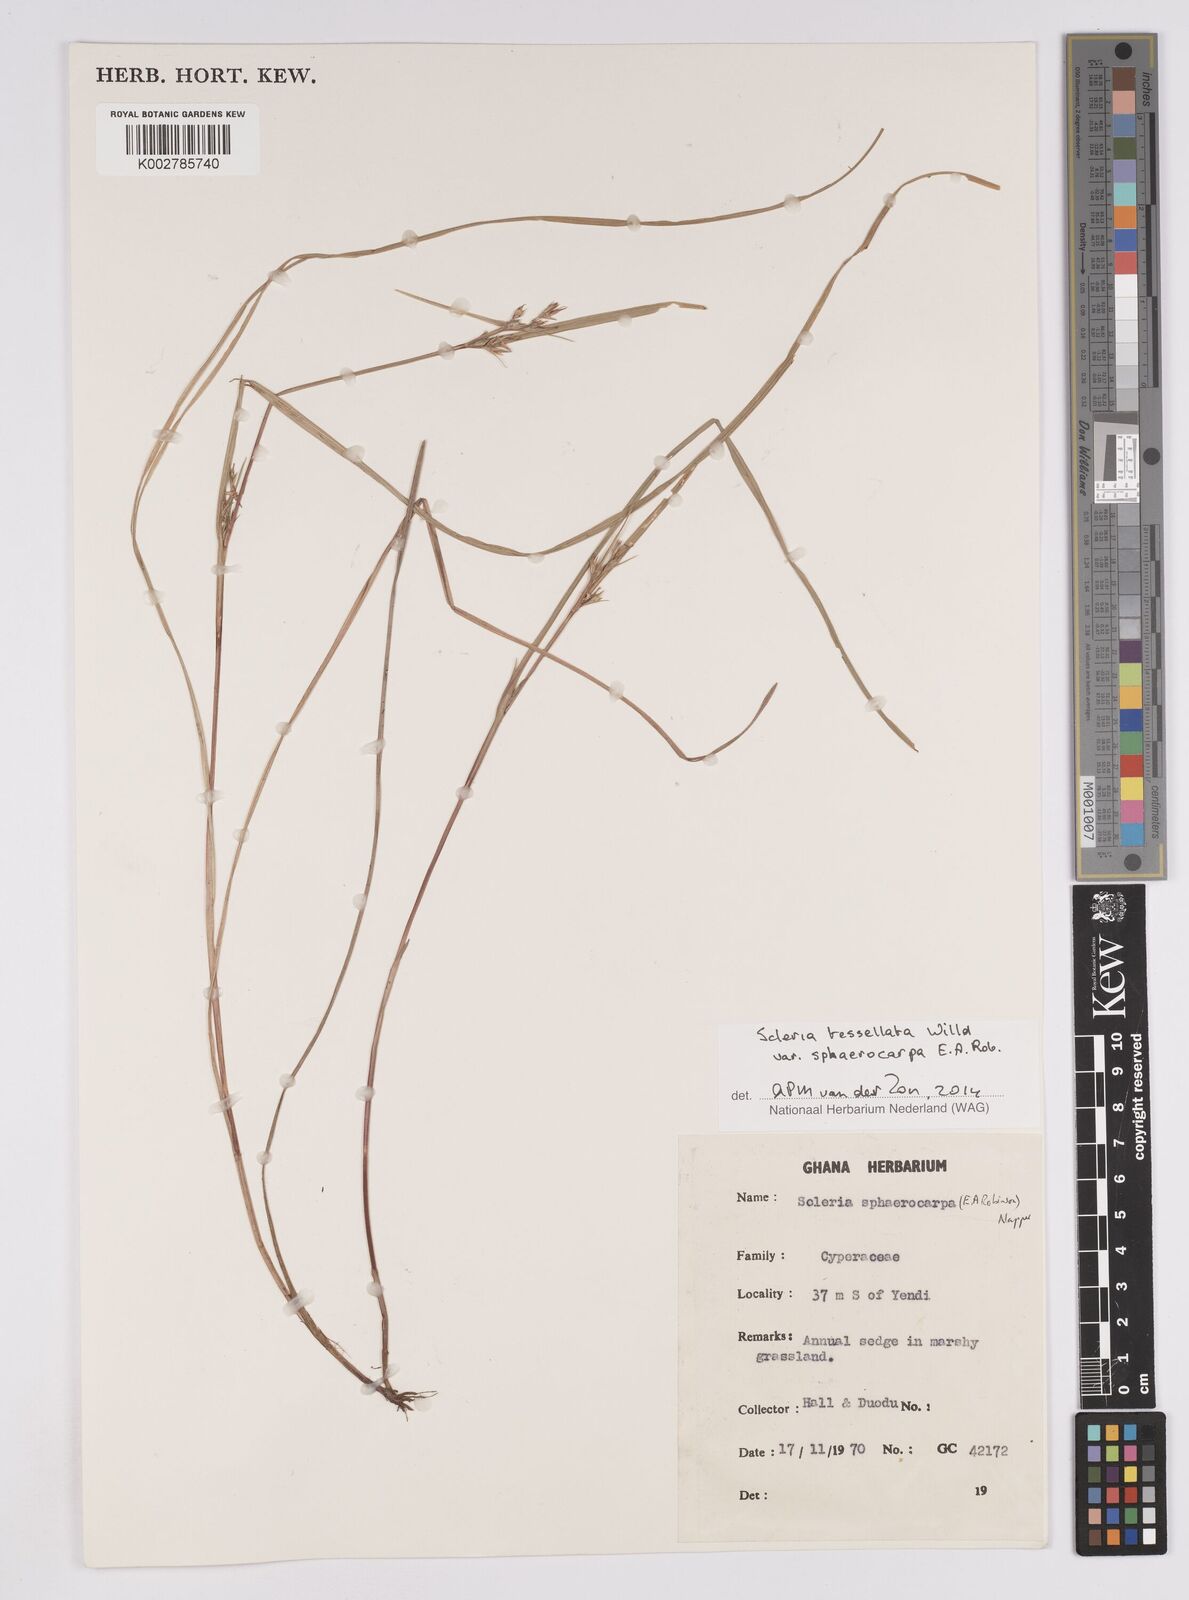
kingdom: Plantae
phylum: Tracheophyta
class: Liliopsida
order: Poales
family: Cyperaceae
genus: Scleria
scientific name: Scleria tessellata
